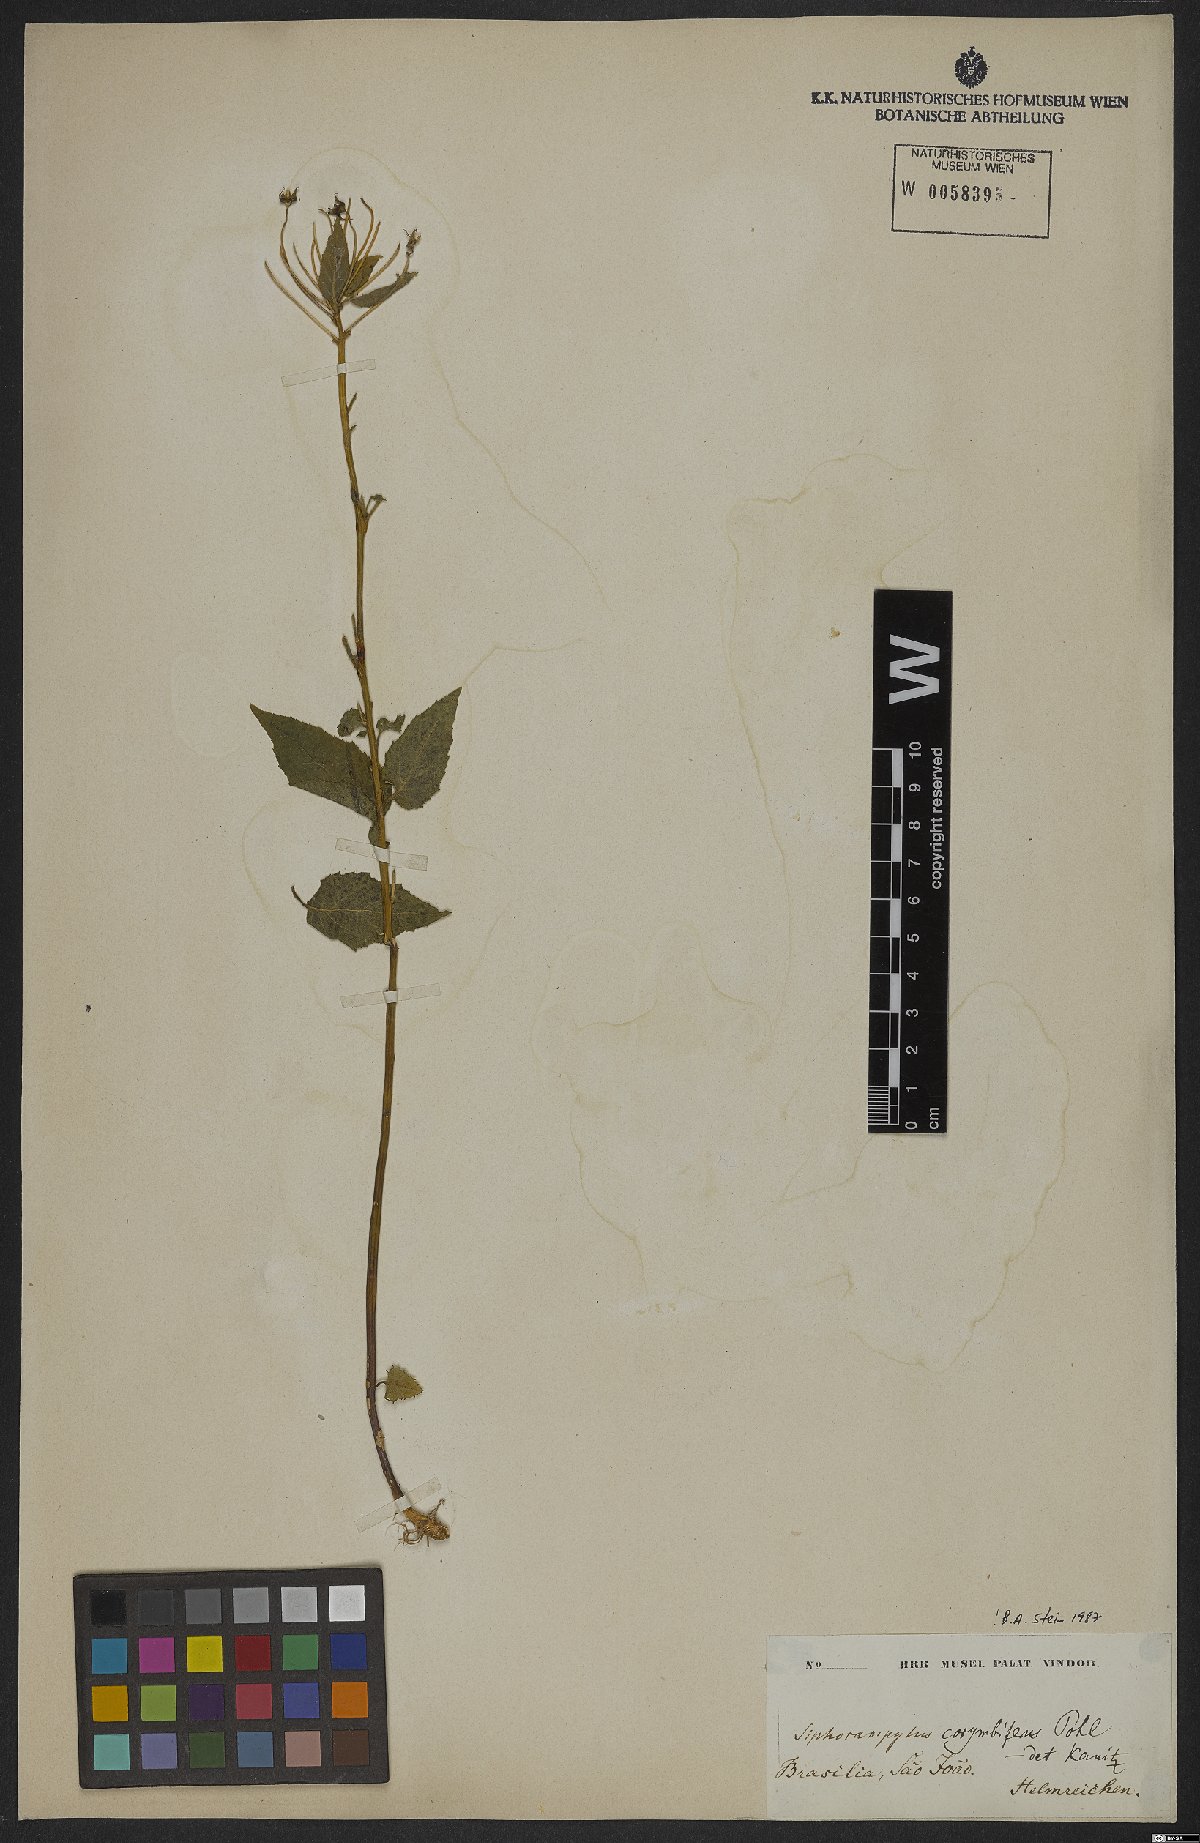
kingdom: Plantae
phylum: Tracheophyta
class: Magnoliopsida
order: Asterales
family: Campanulaceae
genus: Siphocampylus
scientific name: Siphocampylus corymbiferus
